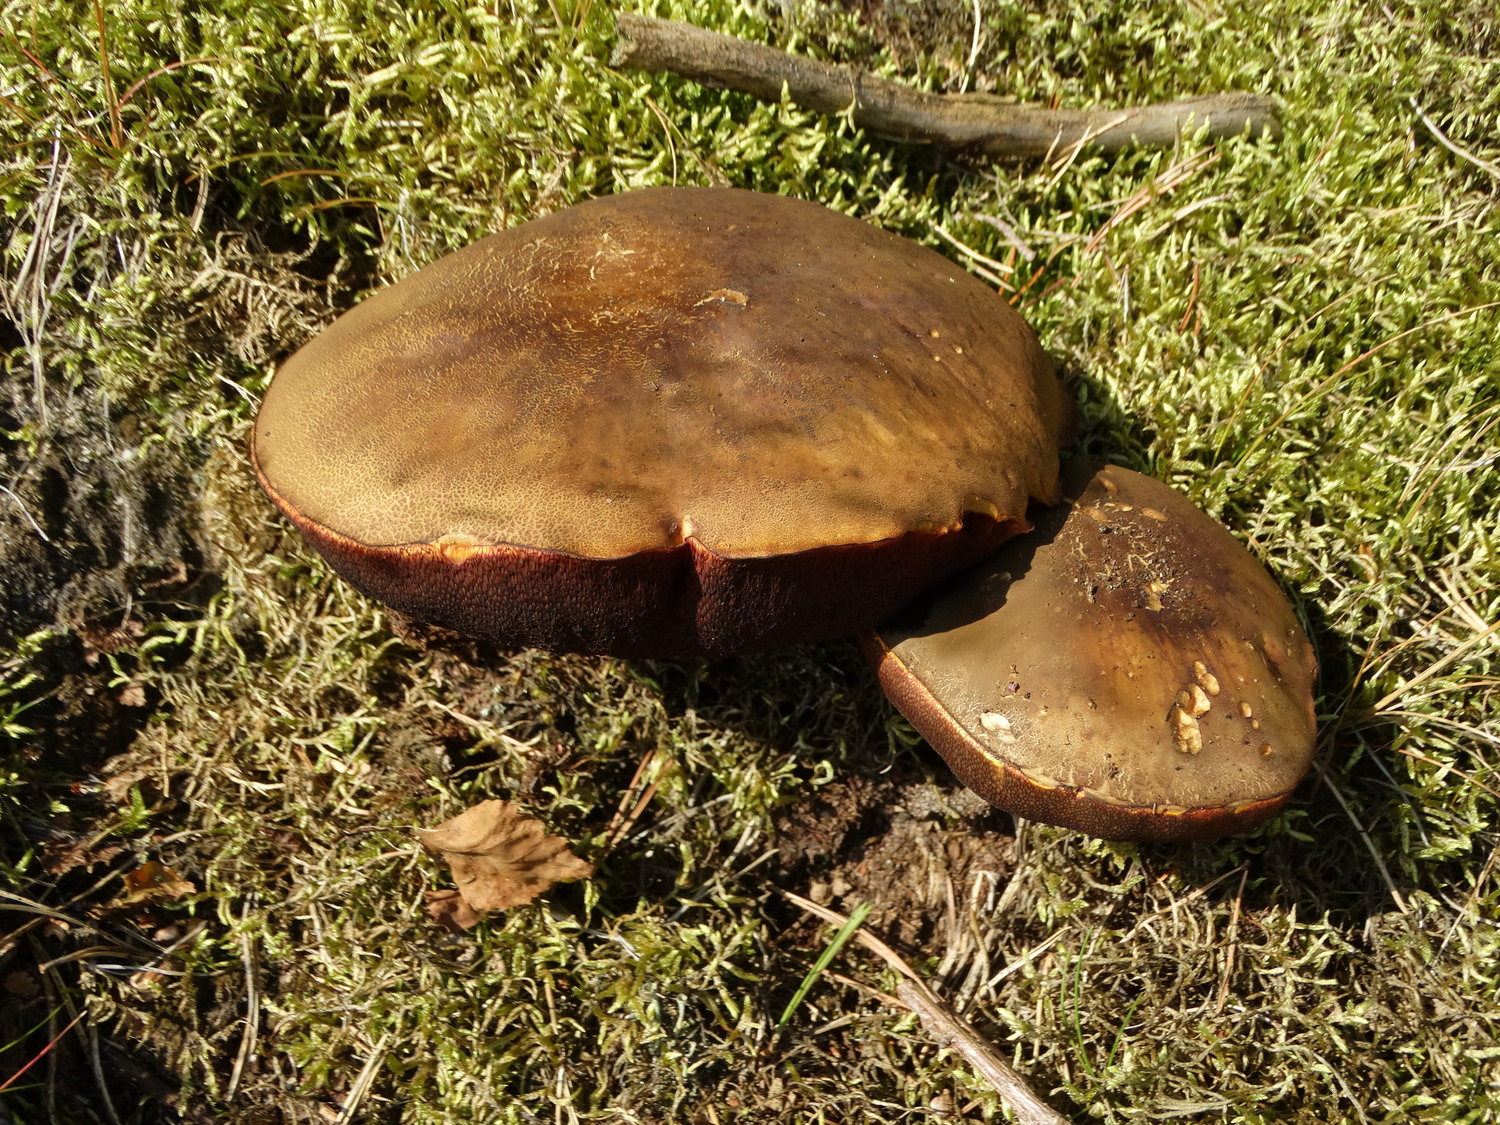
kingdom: Fungi
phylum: Basidiomycota
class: Agaricomycetes
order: Boletales
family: Boletaceae
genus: Neoboletus
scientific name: Neoboletus erythropus
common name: punktstokket indigorørhat
